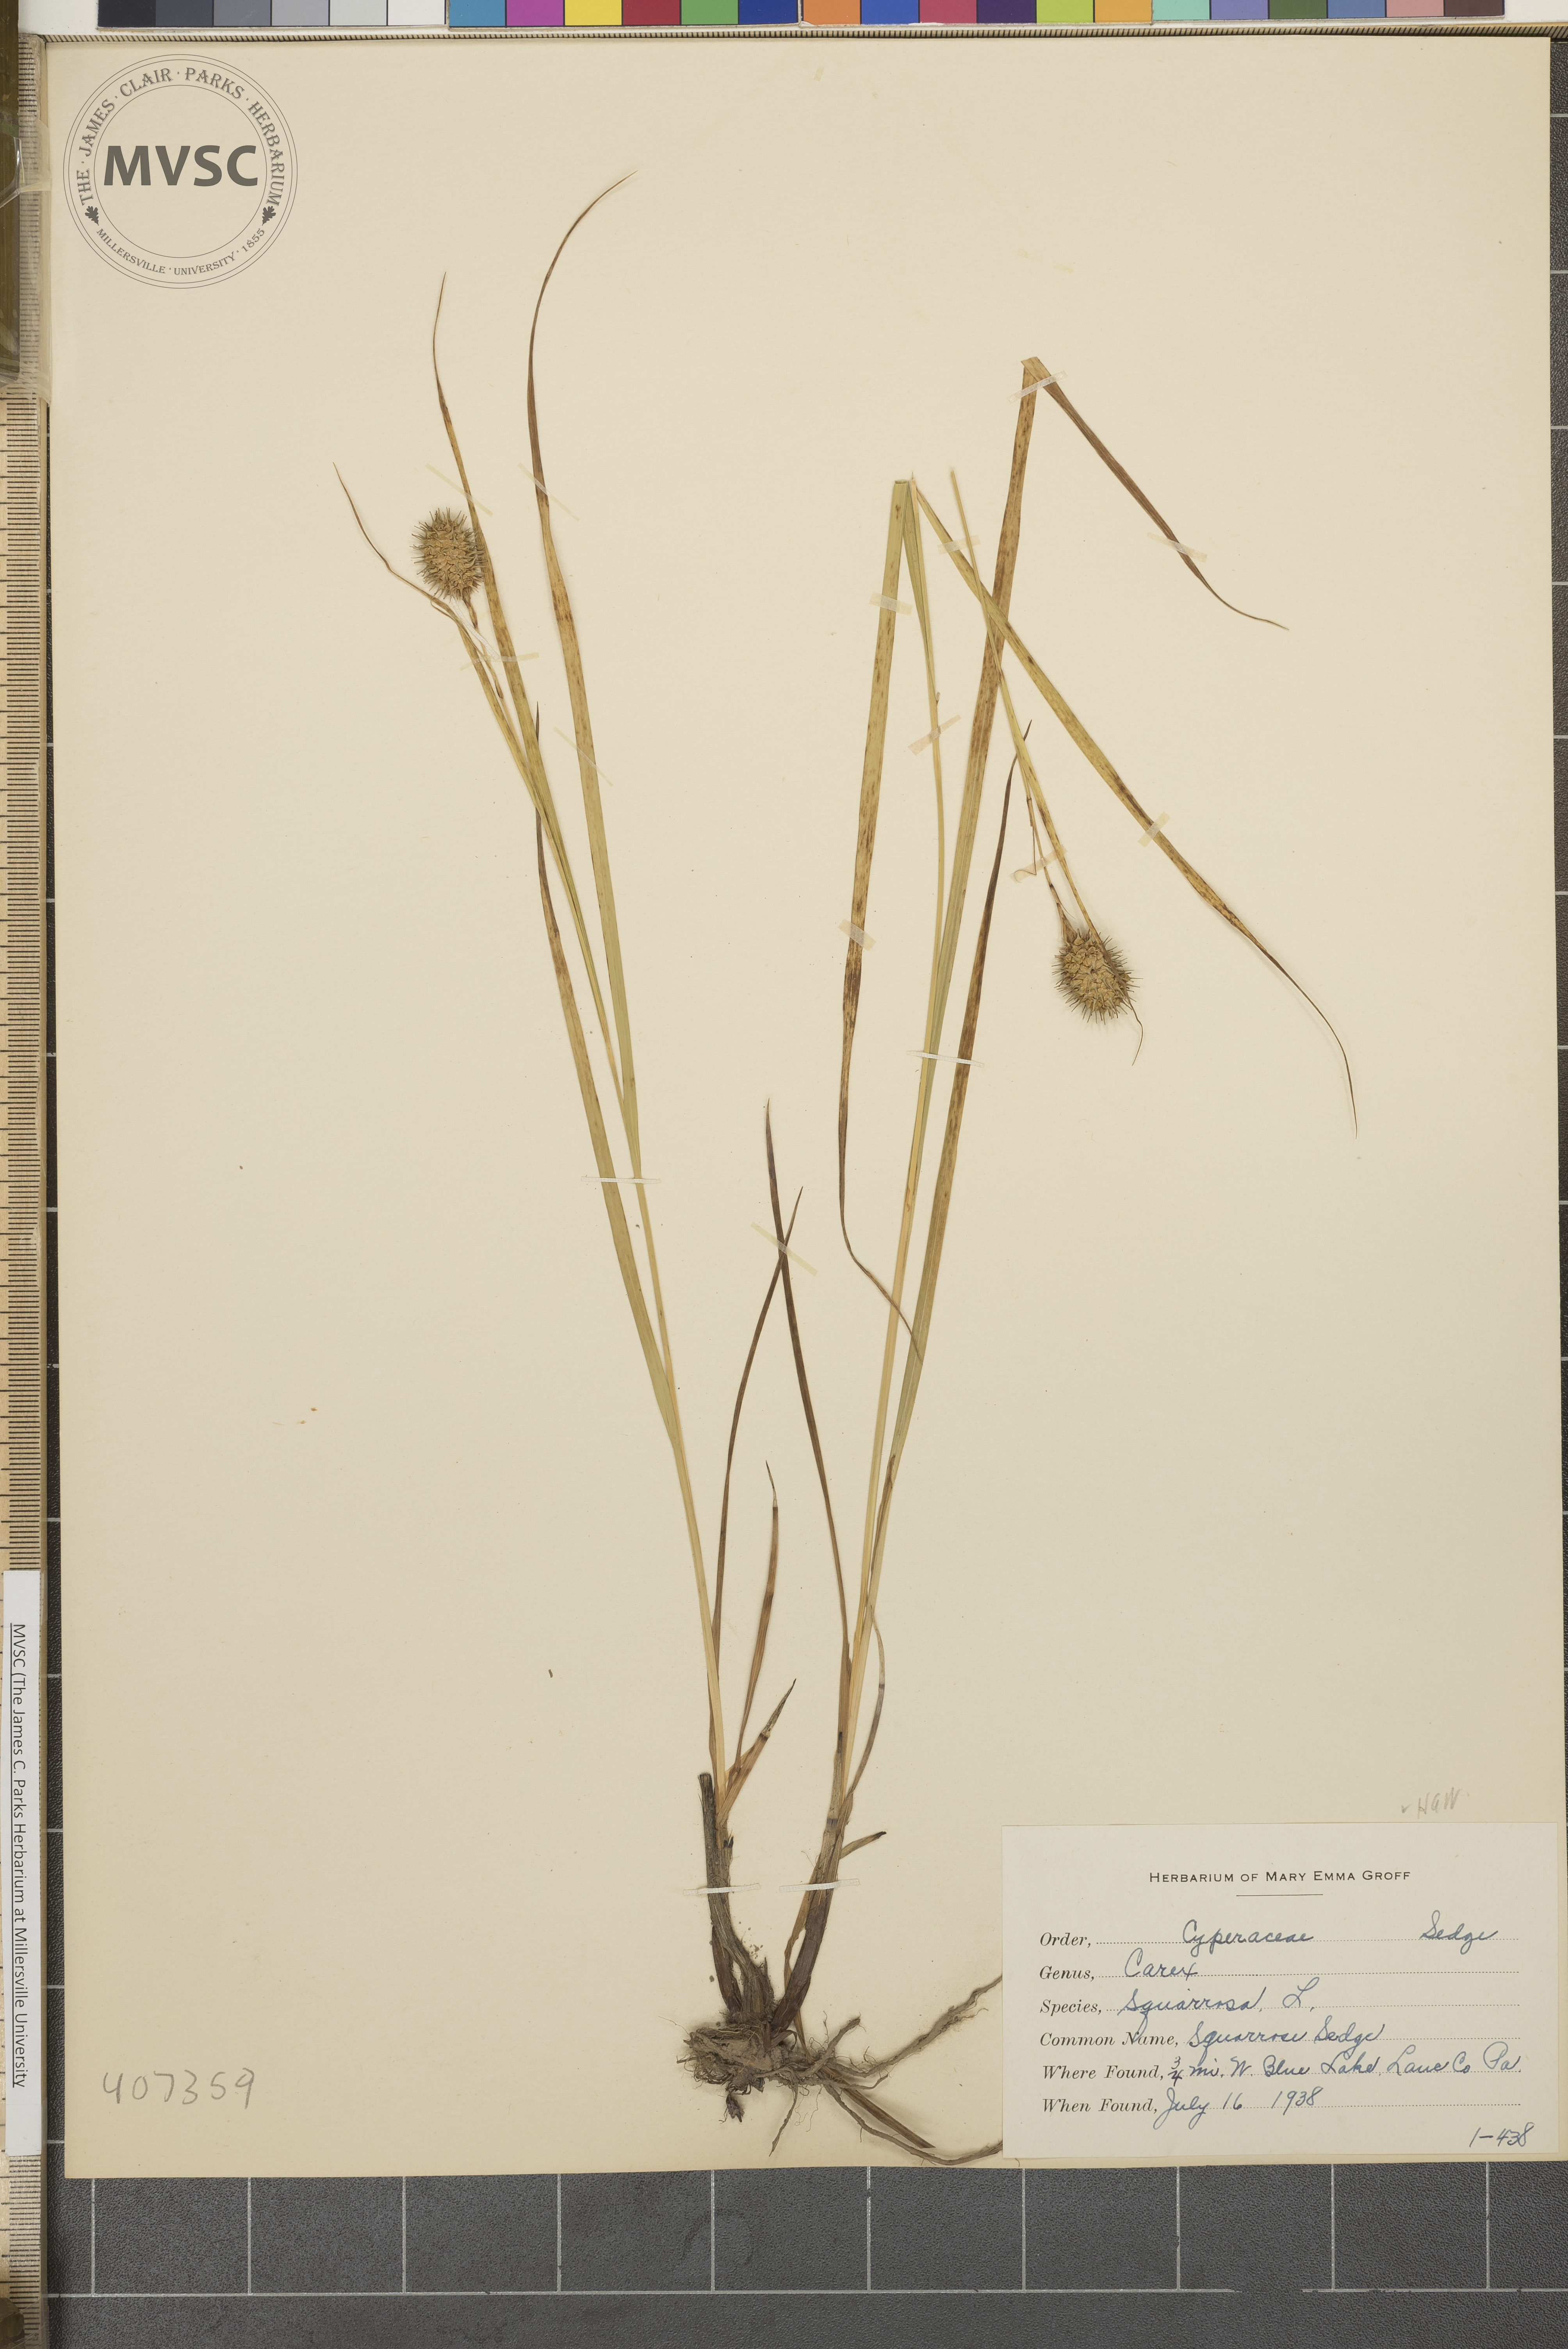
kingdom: Plantae
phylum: Tracheophyta
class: Liliopsida
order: Poales
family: Cyperaceae
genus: Carex
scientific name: Carex squarrosa
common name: Squarrose Sedge
